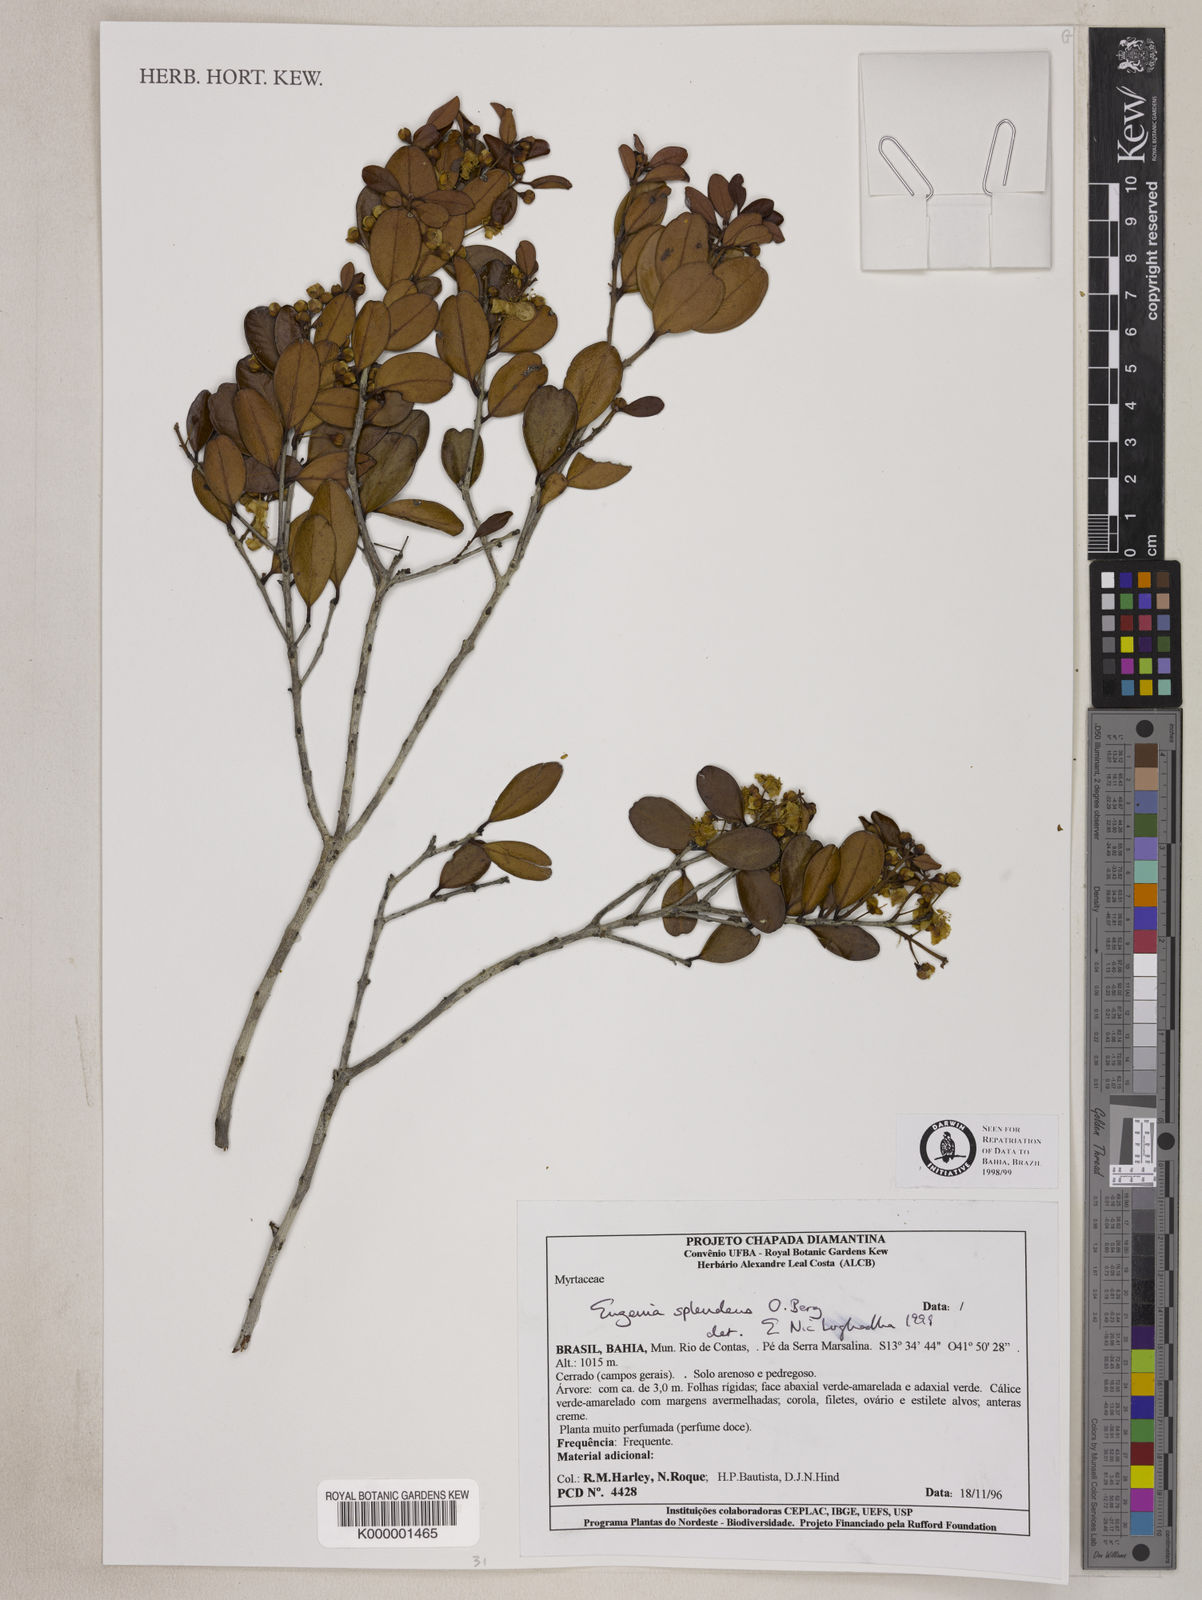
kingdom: Plantae
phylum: Tracheophyta
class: Magnoliopsida
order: Myrtales
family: Myrtaceae
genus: Eugenia
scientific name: Eugenia splendens
